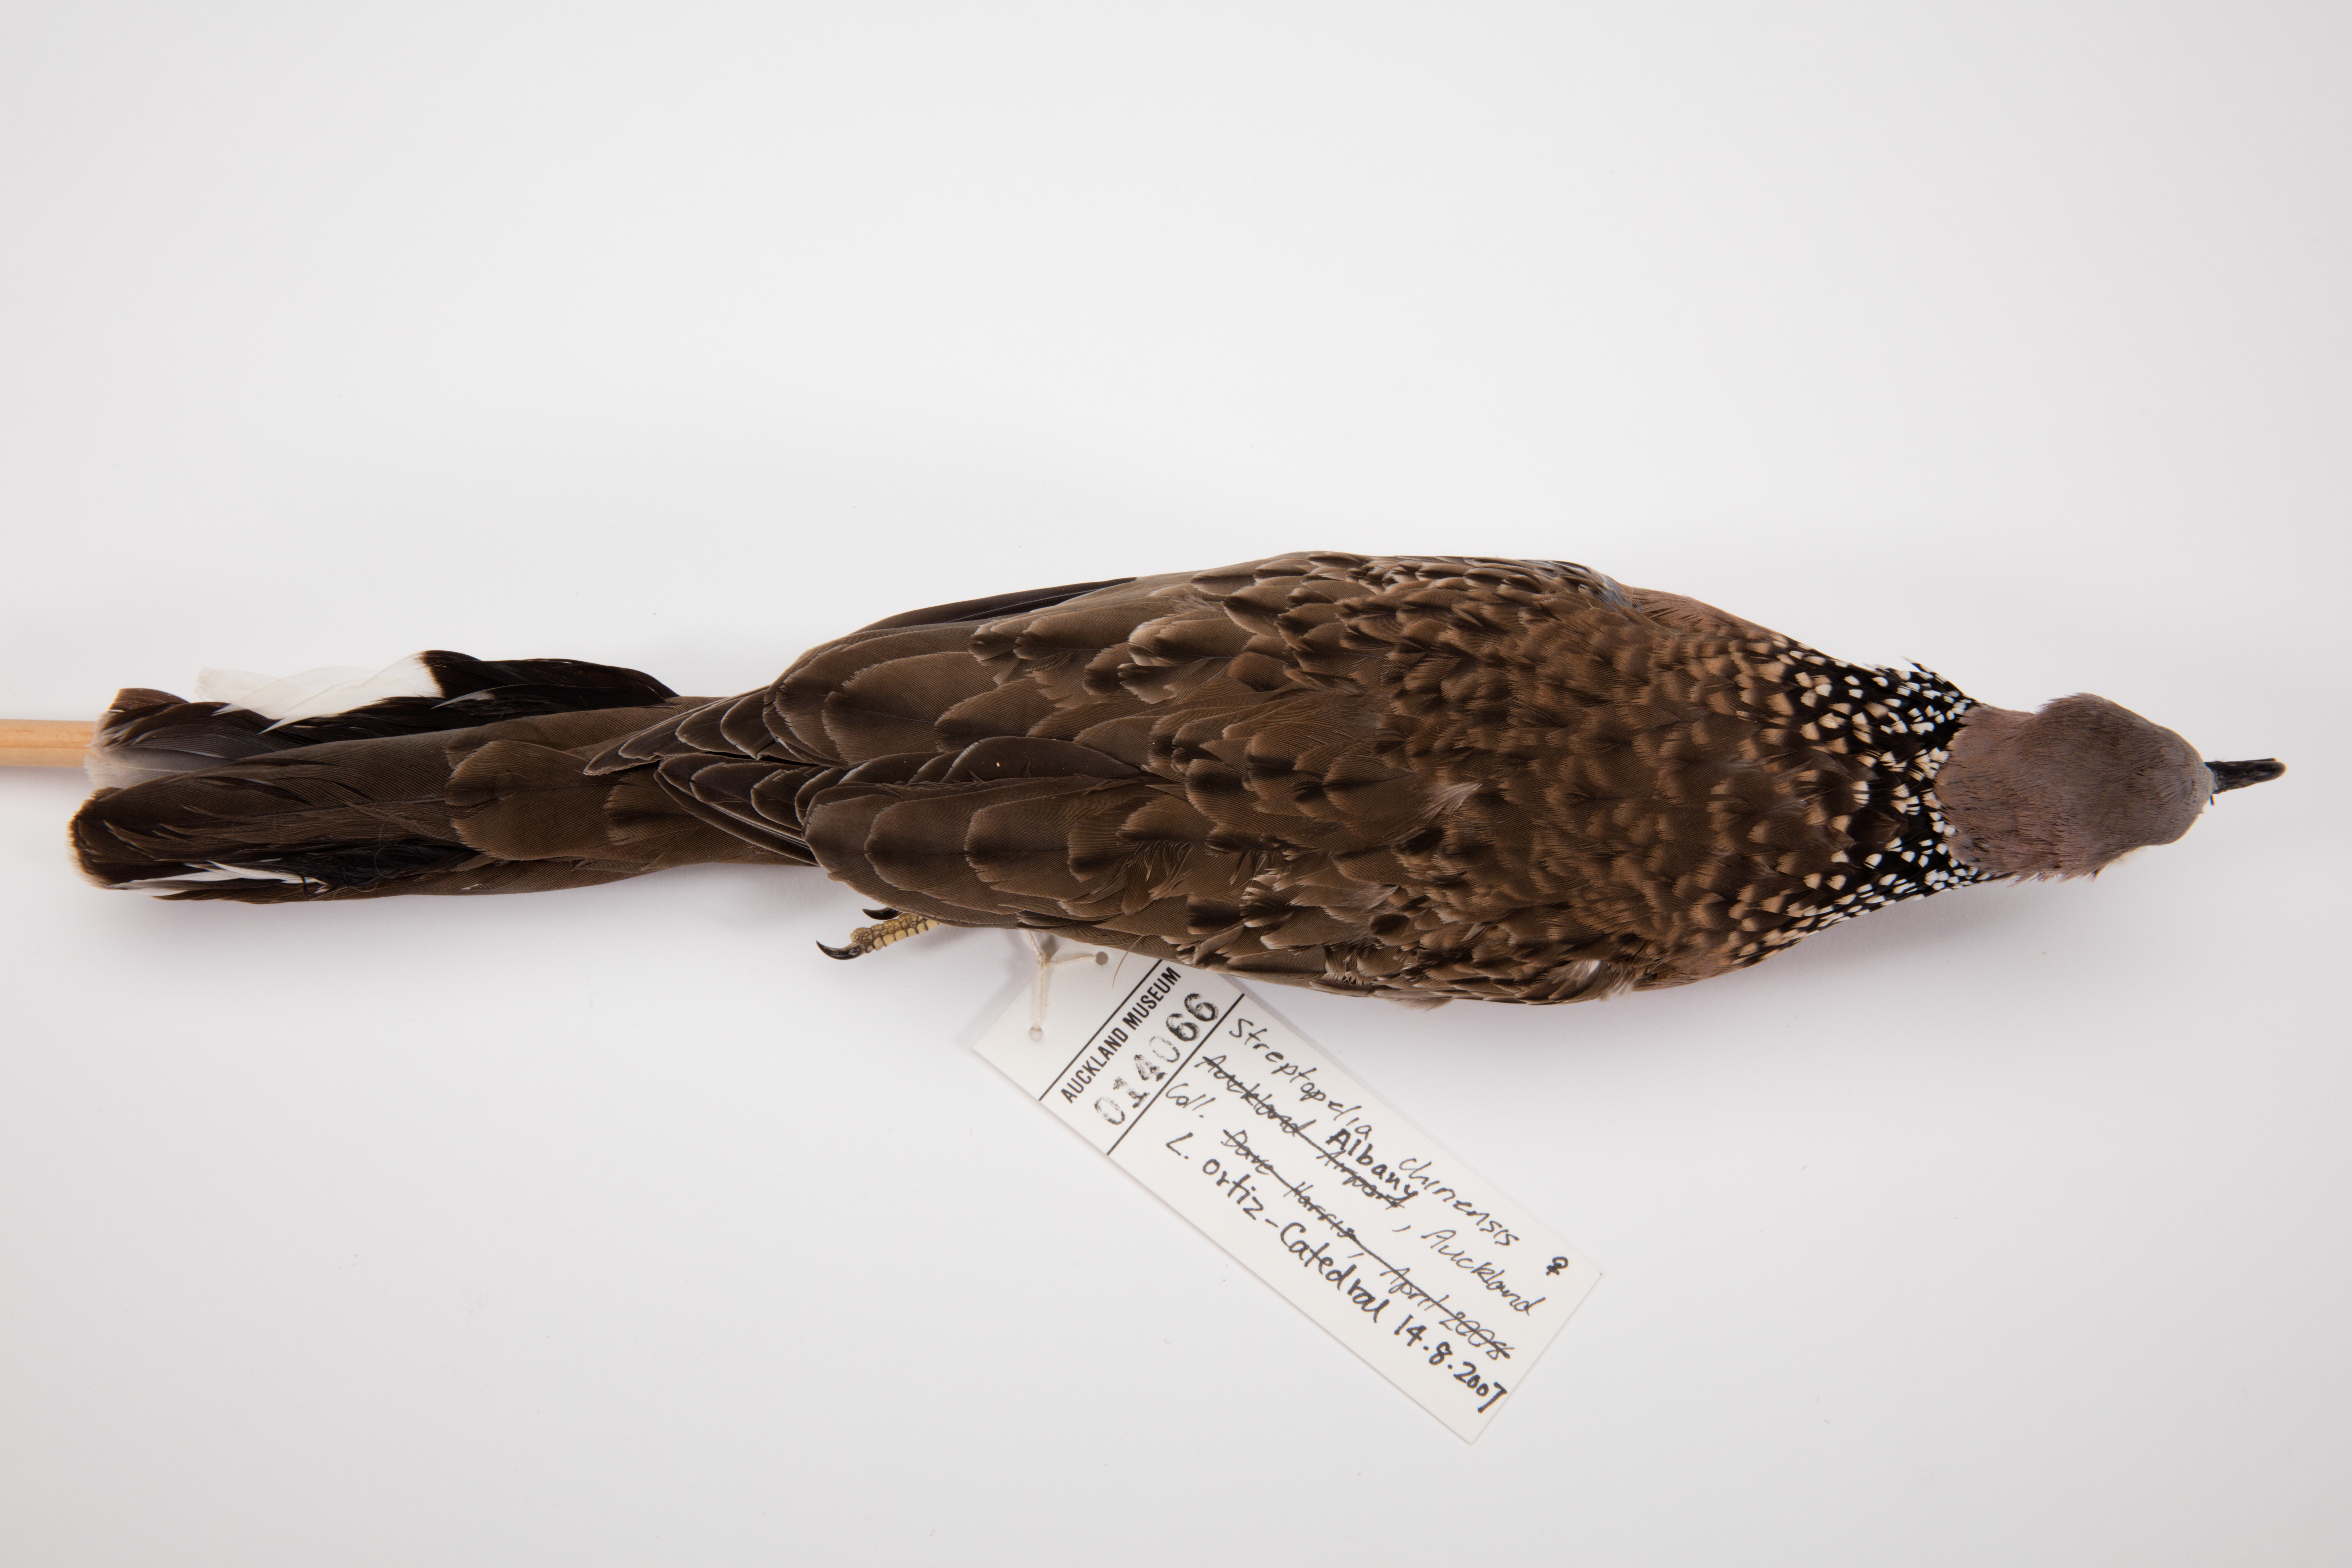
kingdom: Animalia
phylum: Chordata
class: Aves
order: Columbiformes
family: Columbidae
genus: Spilopelia
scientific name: Spilopelia chinensis
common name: Spotted dove
